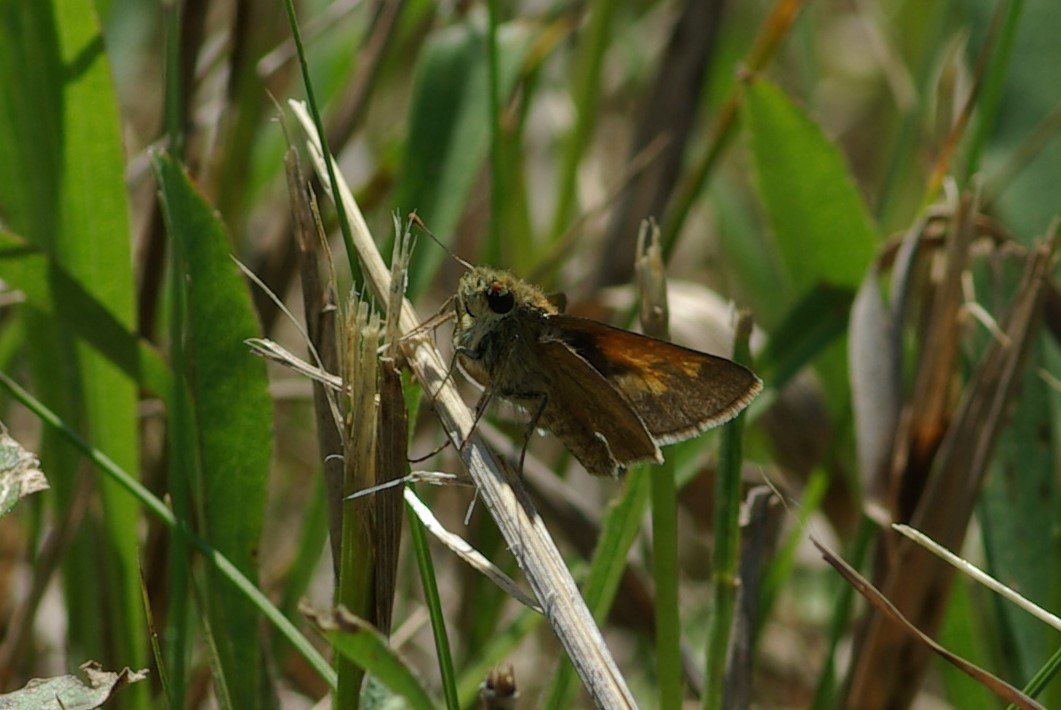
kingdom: Animalia
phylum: Arthropoda
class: Insecta
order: Lepidoptera
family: Hesperiidae
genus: Polites
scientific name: Polites themistocles
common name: Tawny-edged Skipper
